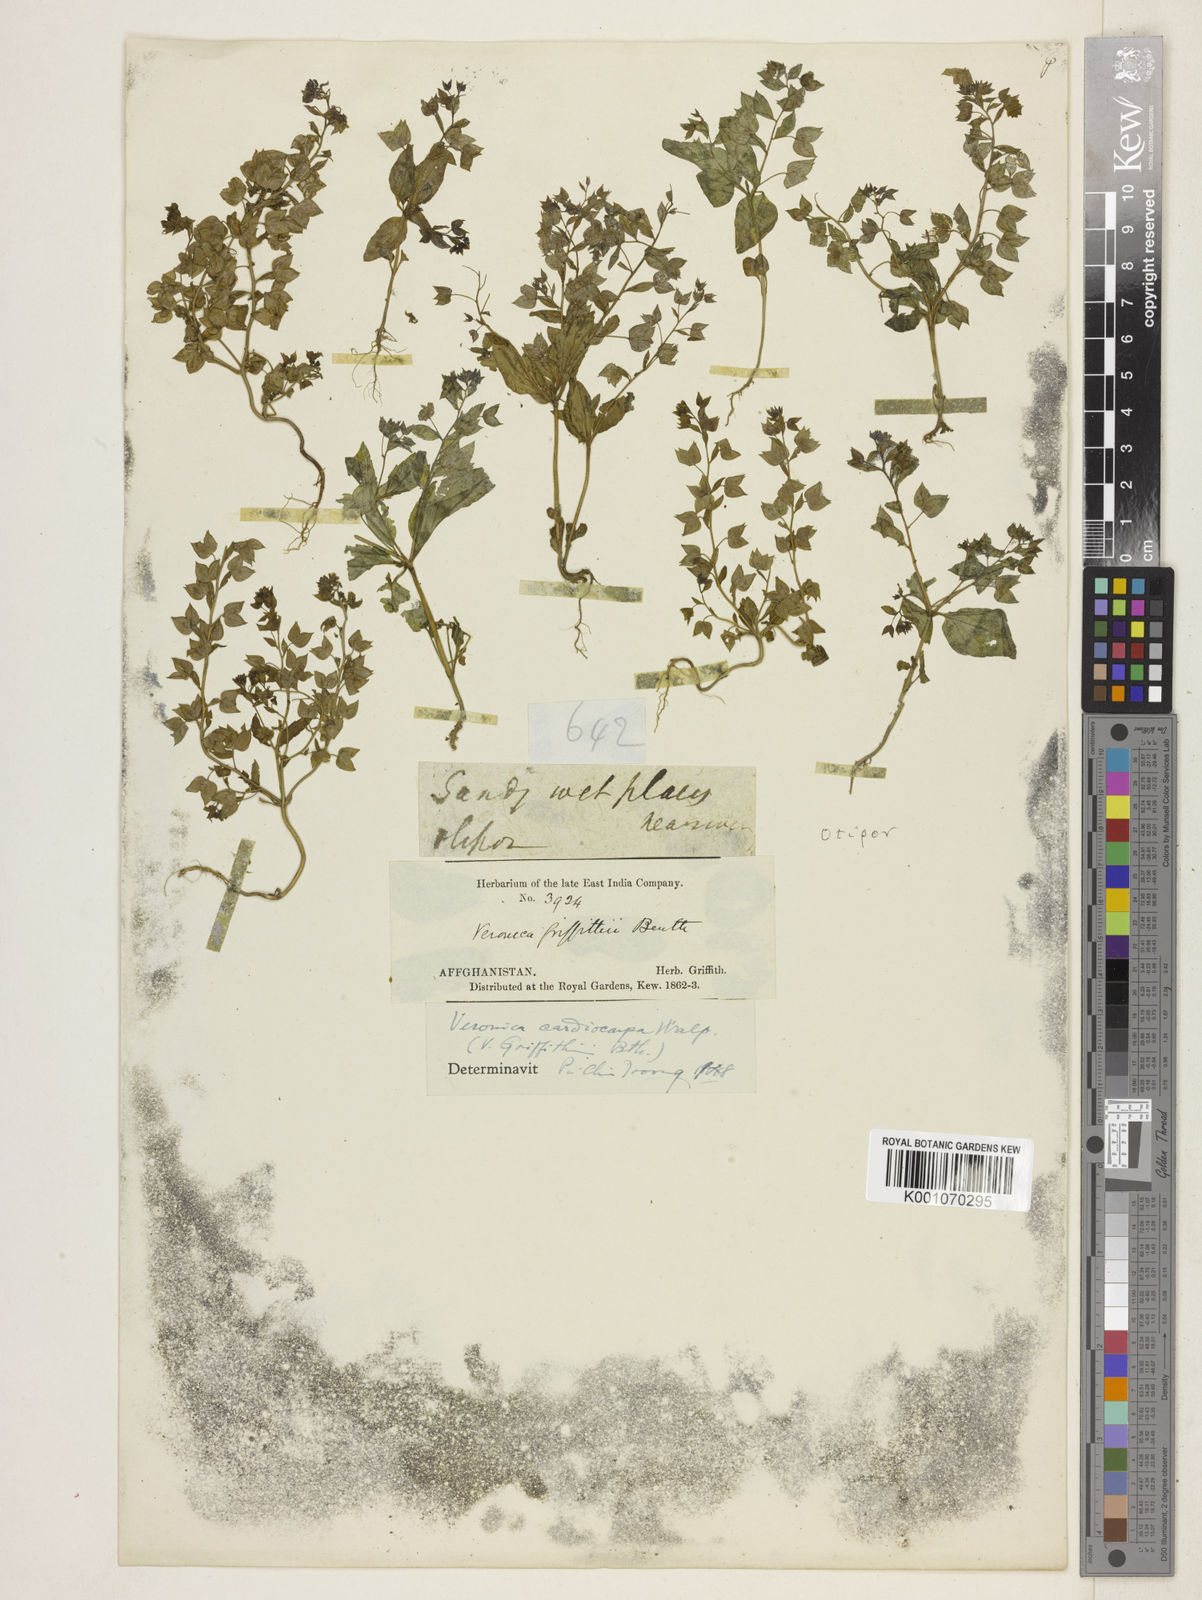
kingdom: Plantae
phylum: Tracheophyta
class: Magnoliopsida
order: Lamiales
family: Plantaginaceae
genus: Veronica
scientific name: Veronica cardiocarpa
